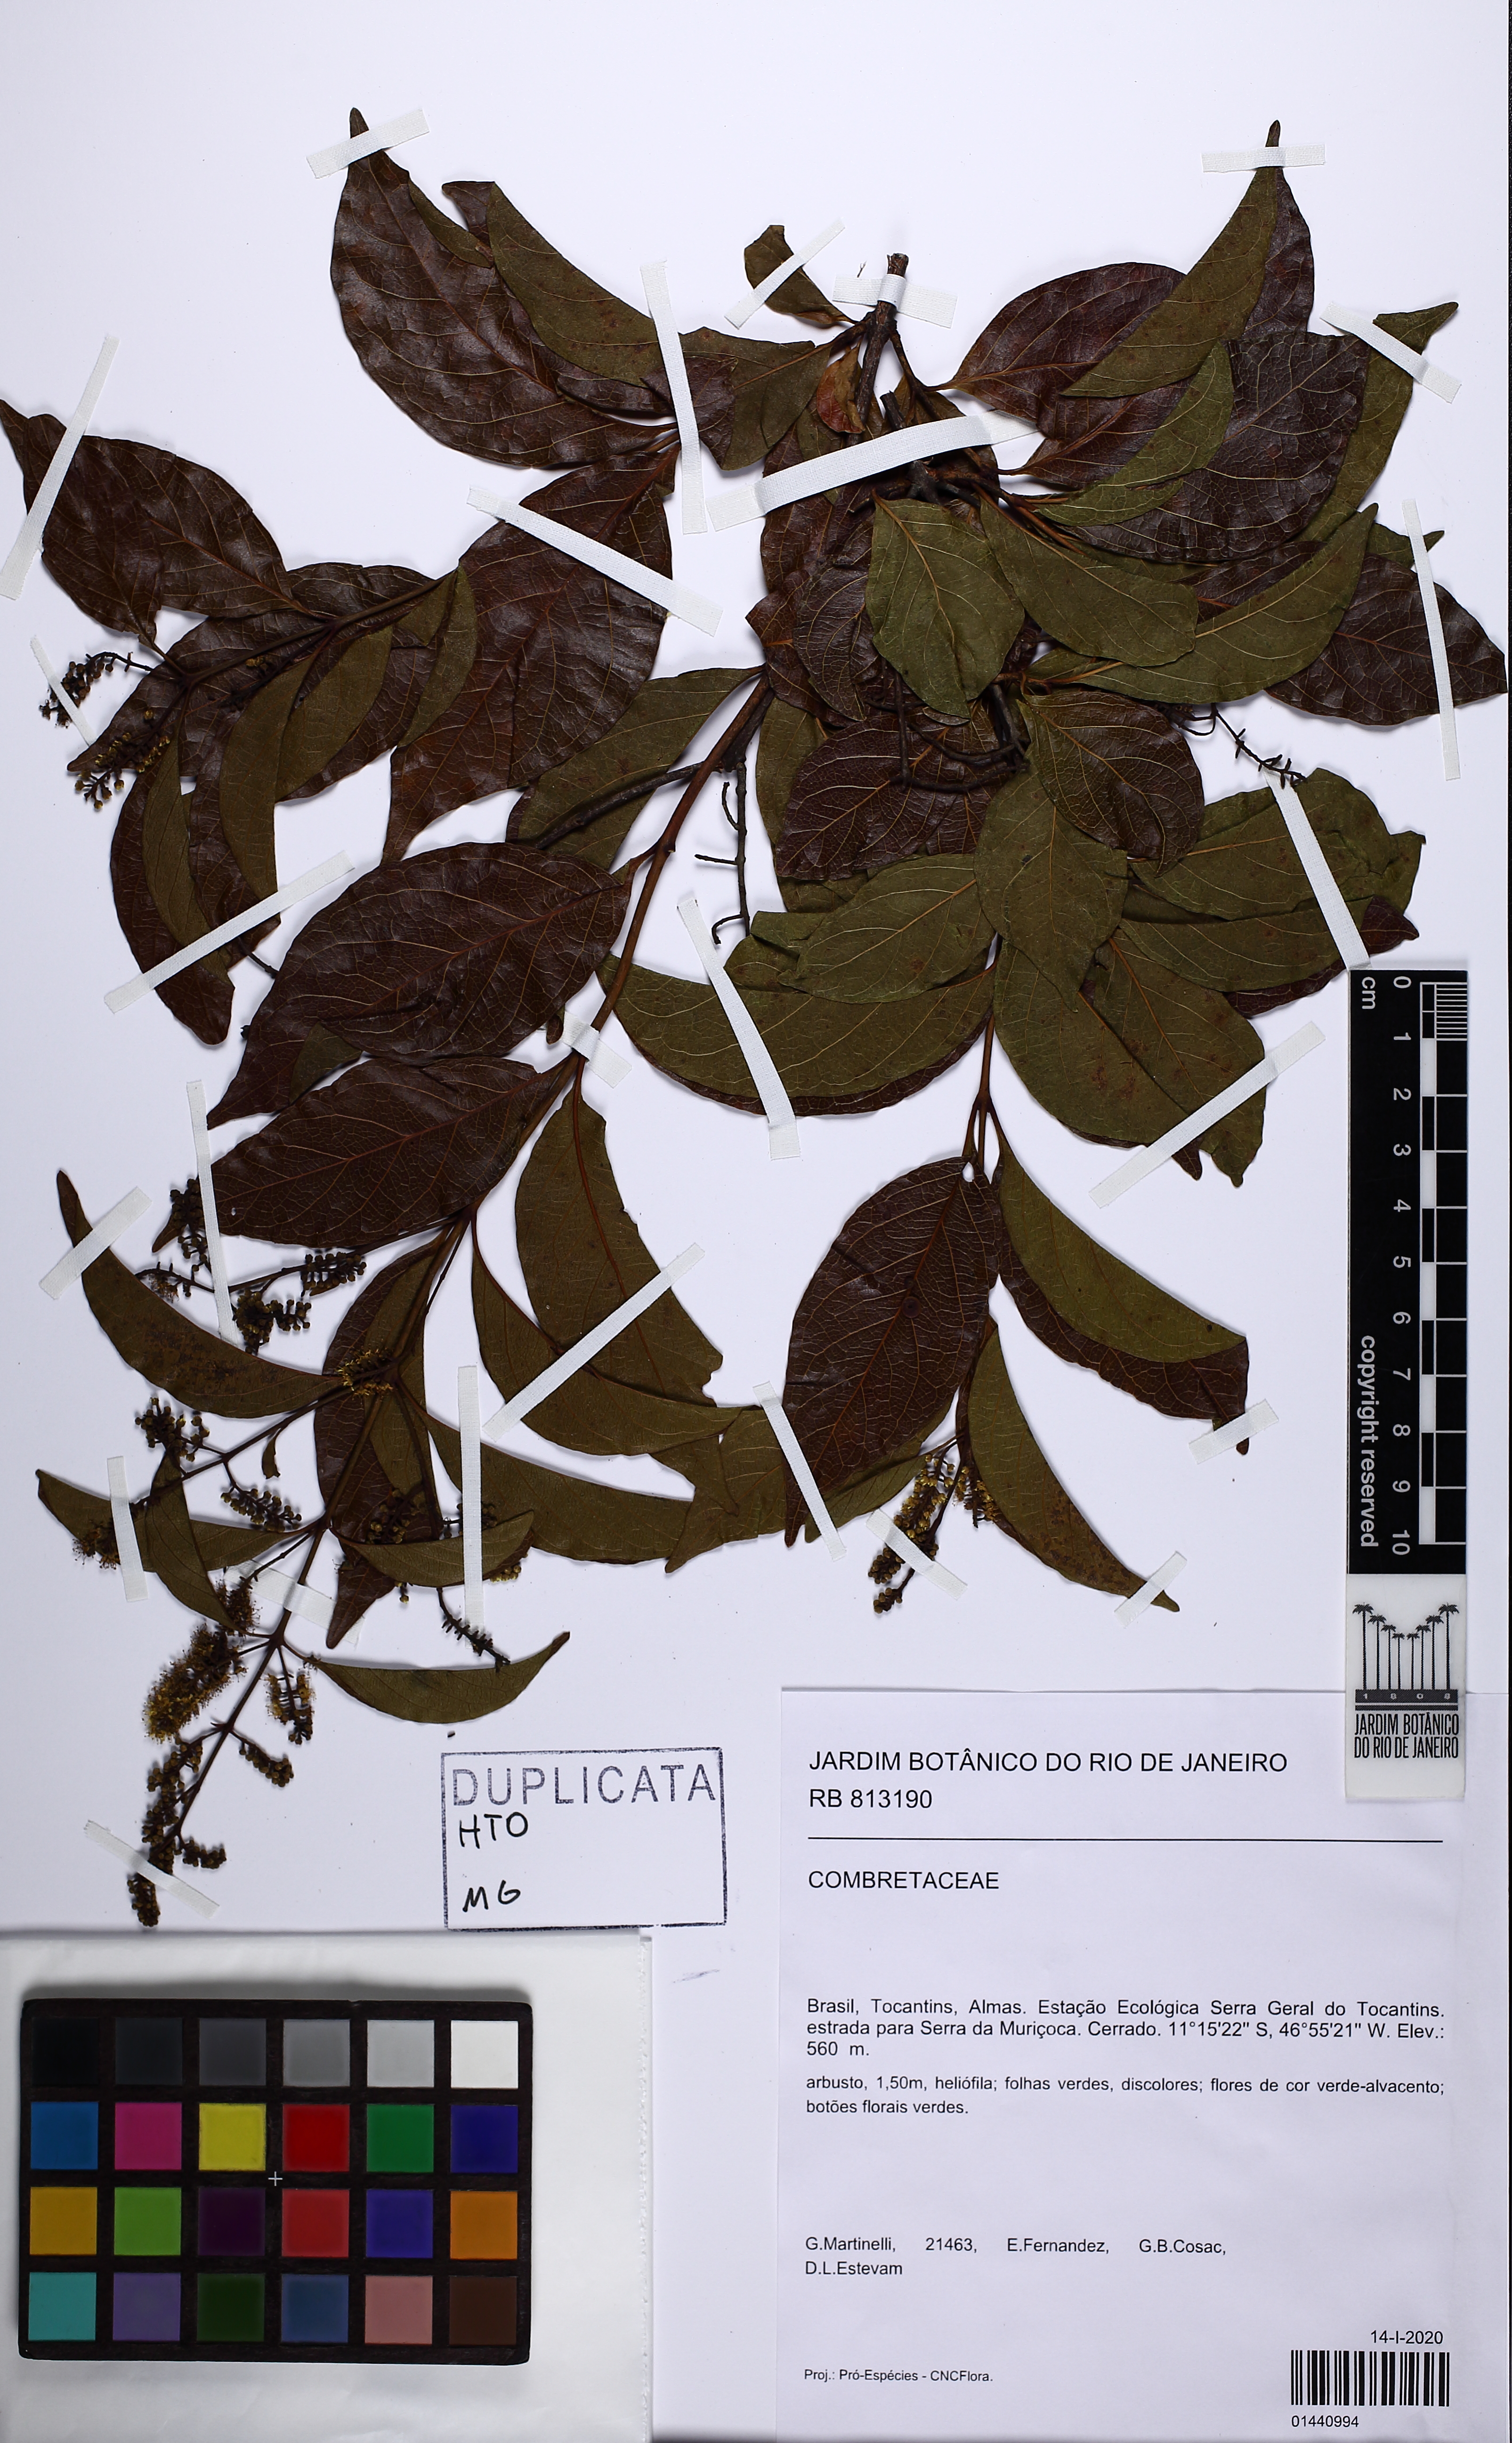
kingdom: Plantae
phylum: Tracheophyta
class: Magnoliopsida
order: Myrtales
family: Combretaceae
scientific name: Combretaceae
